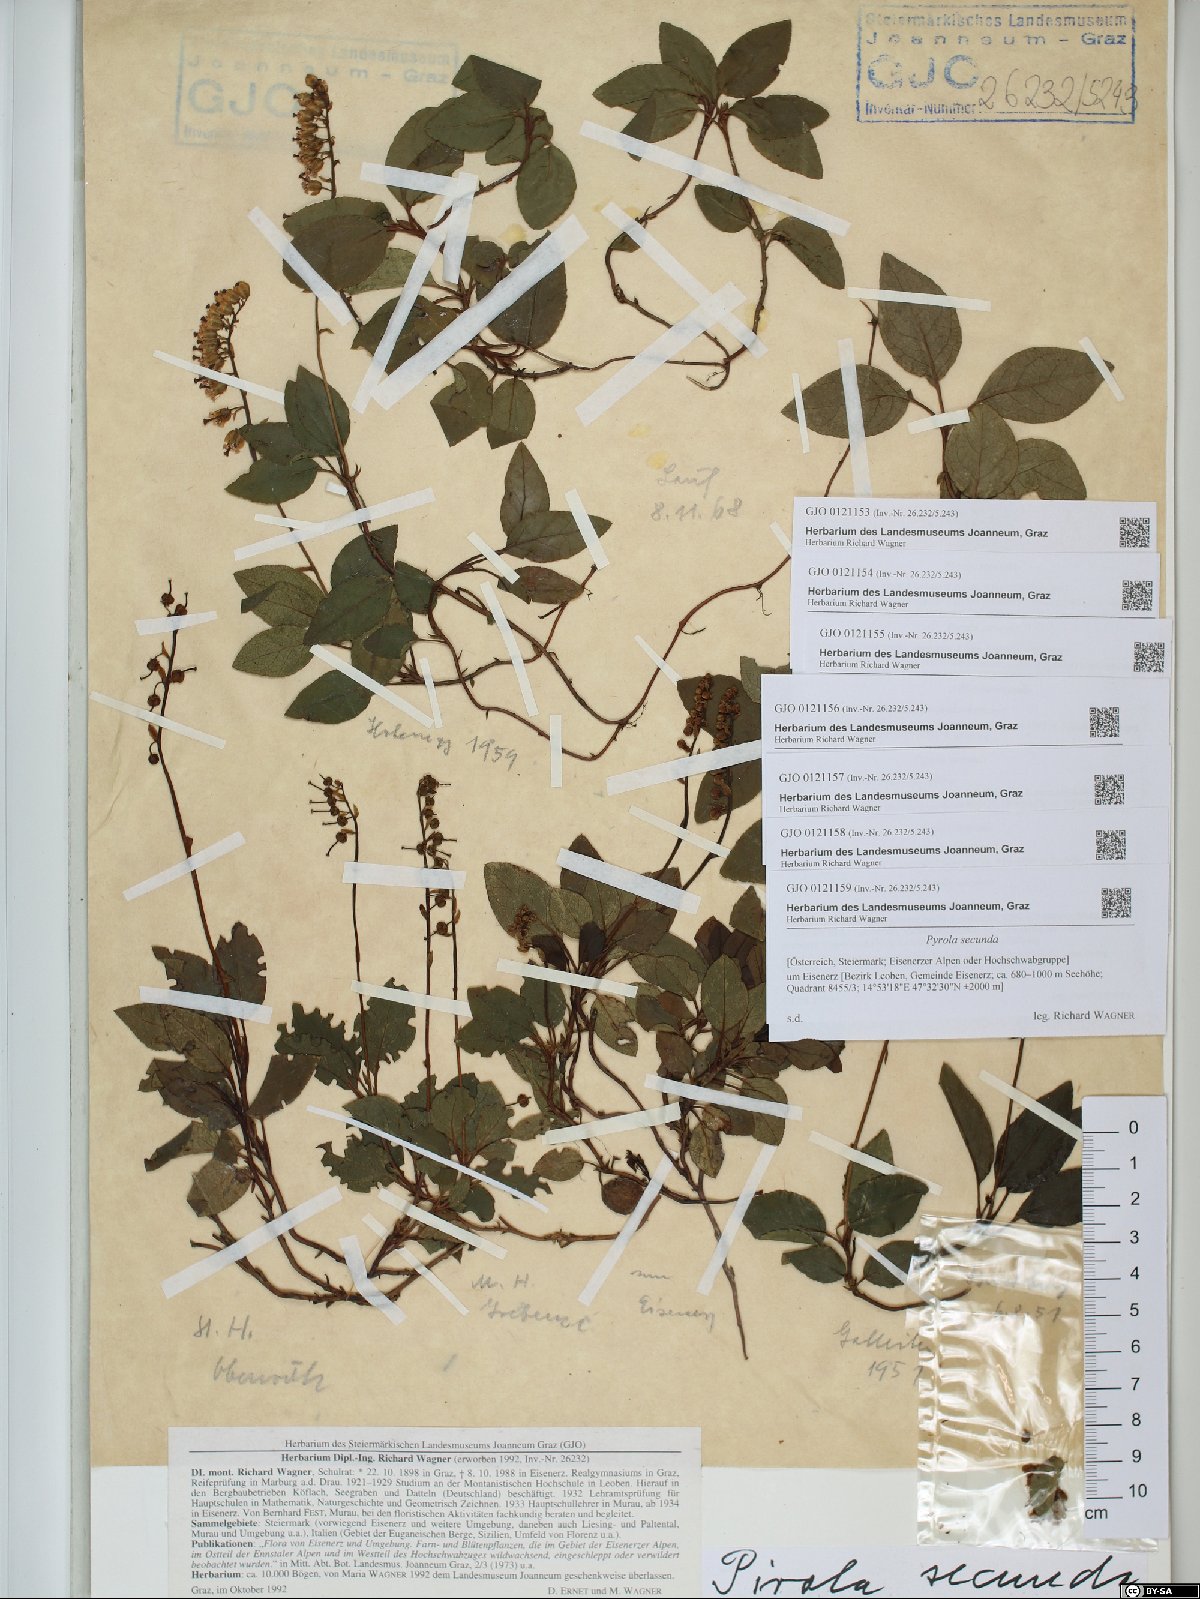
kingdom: Plantae
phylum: Tracheophyta
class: Magnoliopsida
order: Ericales
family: Ericaceae
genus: Orthilia
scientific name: Orthilia secunda
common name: One-sided orthilia
